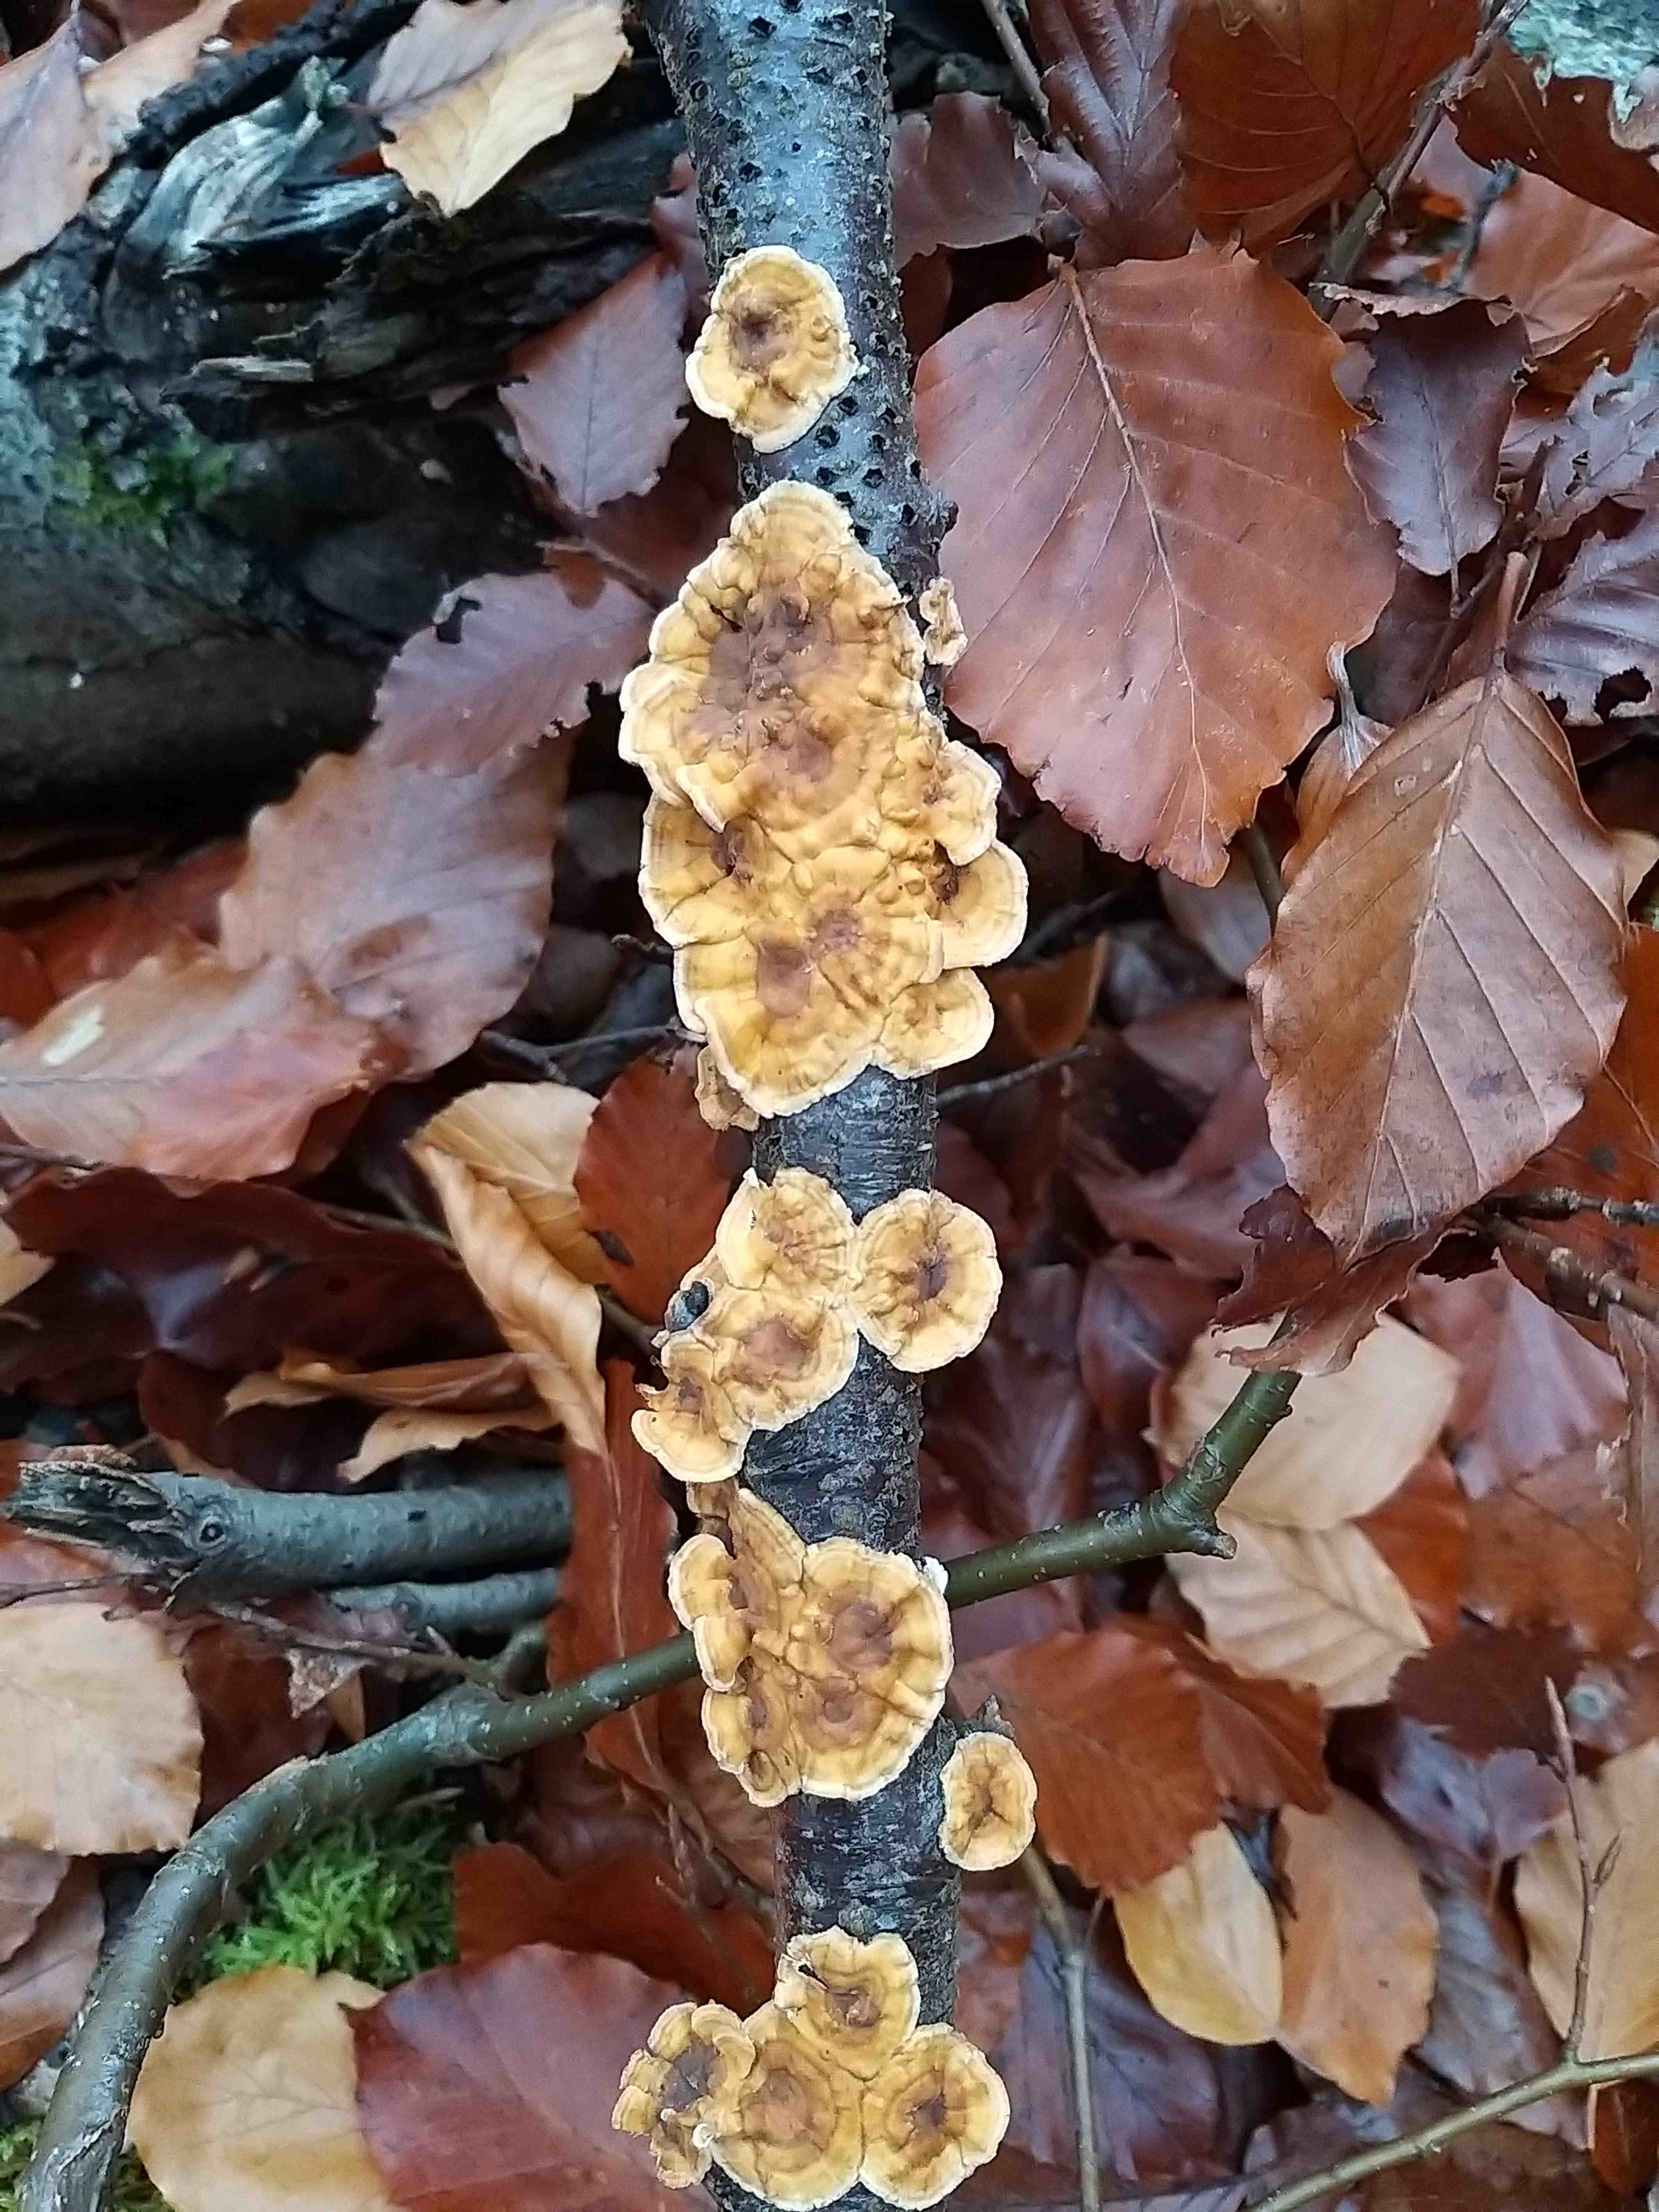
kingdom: Fungi
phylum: Basidiomycota
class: Agaricomycetes
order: Russulales
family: Stereaceae
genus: Stereum
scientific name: Stereum hirsutum
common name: håret lædersvamp
